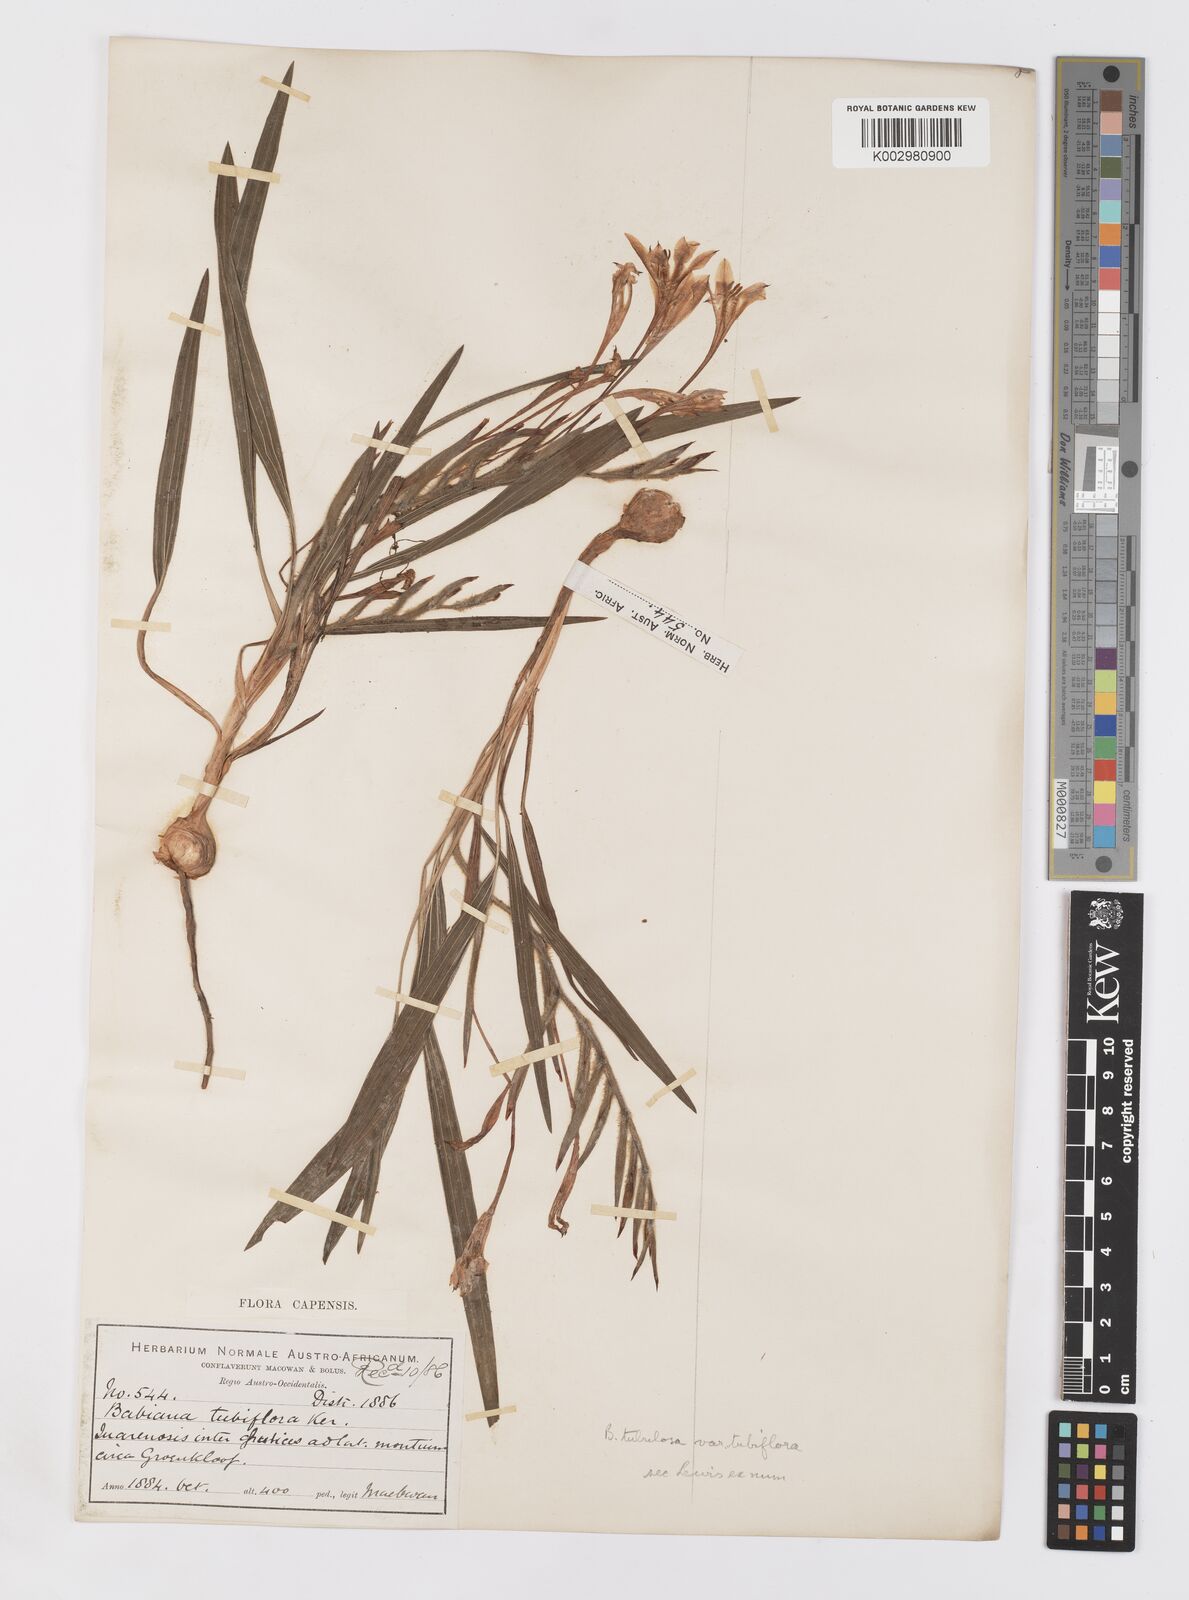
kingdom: Plantae
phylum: Tracheophyta
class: Liliopsida
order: Asparagales
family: Iridaceae
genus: Babiana
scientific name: Babiana tubiflora
